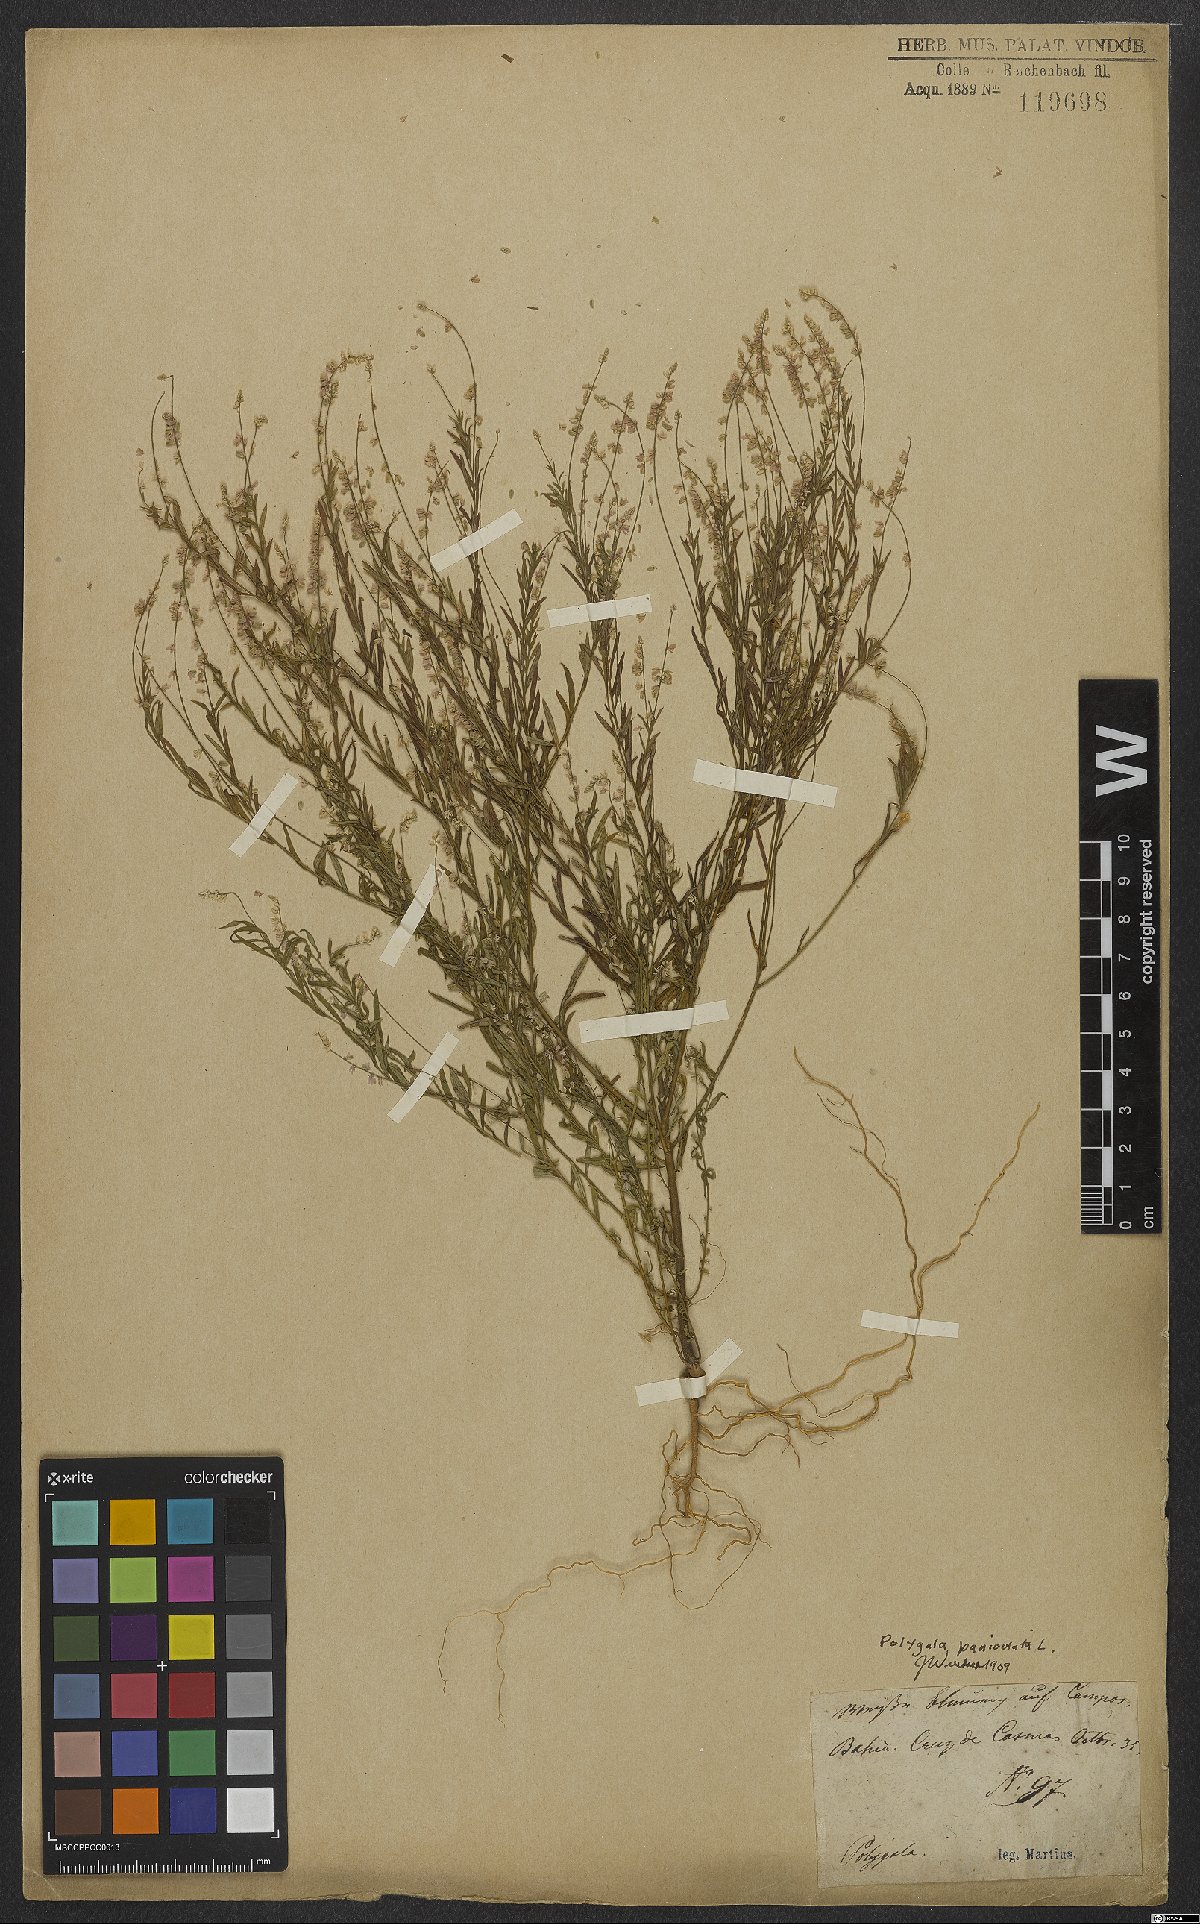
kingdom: Plantae
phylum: Tracheophyta
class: Magnoliopsida
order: Fabales
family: Polygalaceae
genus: Polygala
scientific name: Polygala exilis
